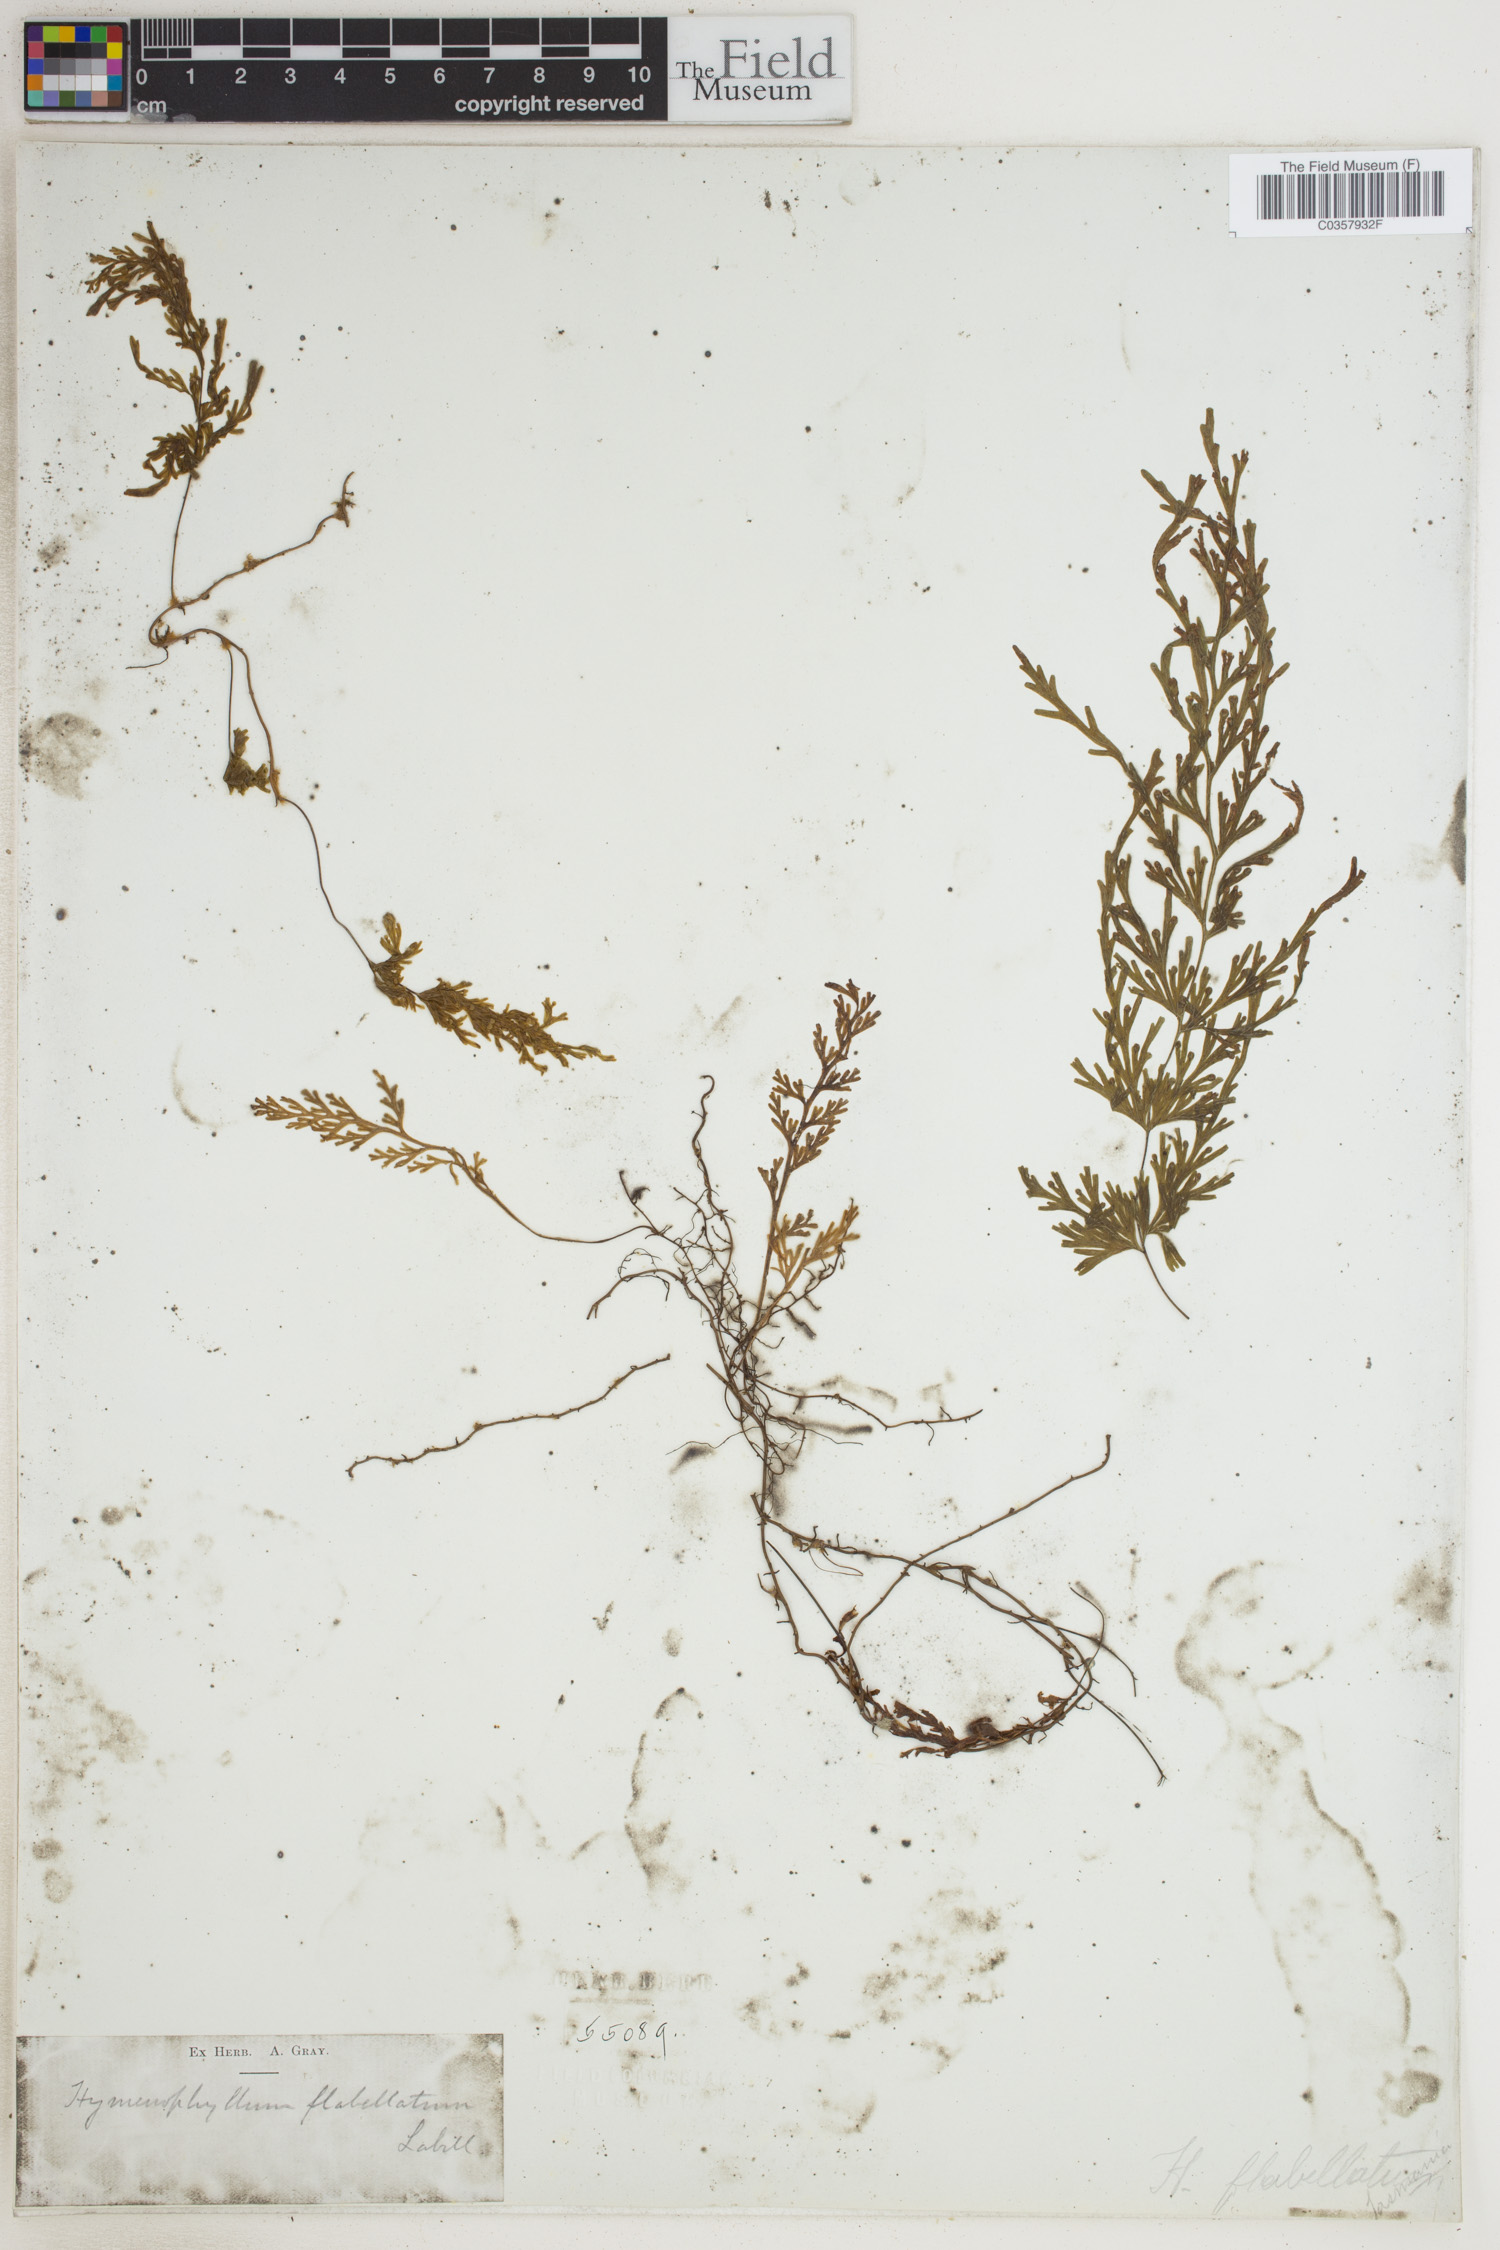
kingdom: Plantae
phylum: Tracheophyta
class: Polypodiopsida
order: Hymenophyllales
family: Hymenophyllaceae
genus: Hymenophyllum
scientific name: Hymenophyllum flabellatum
